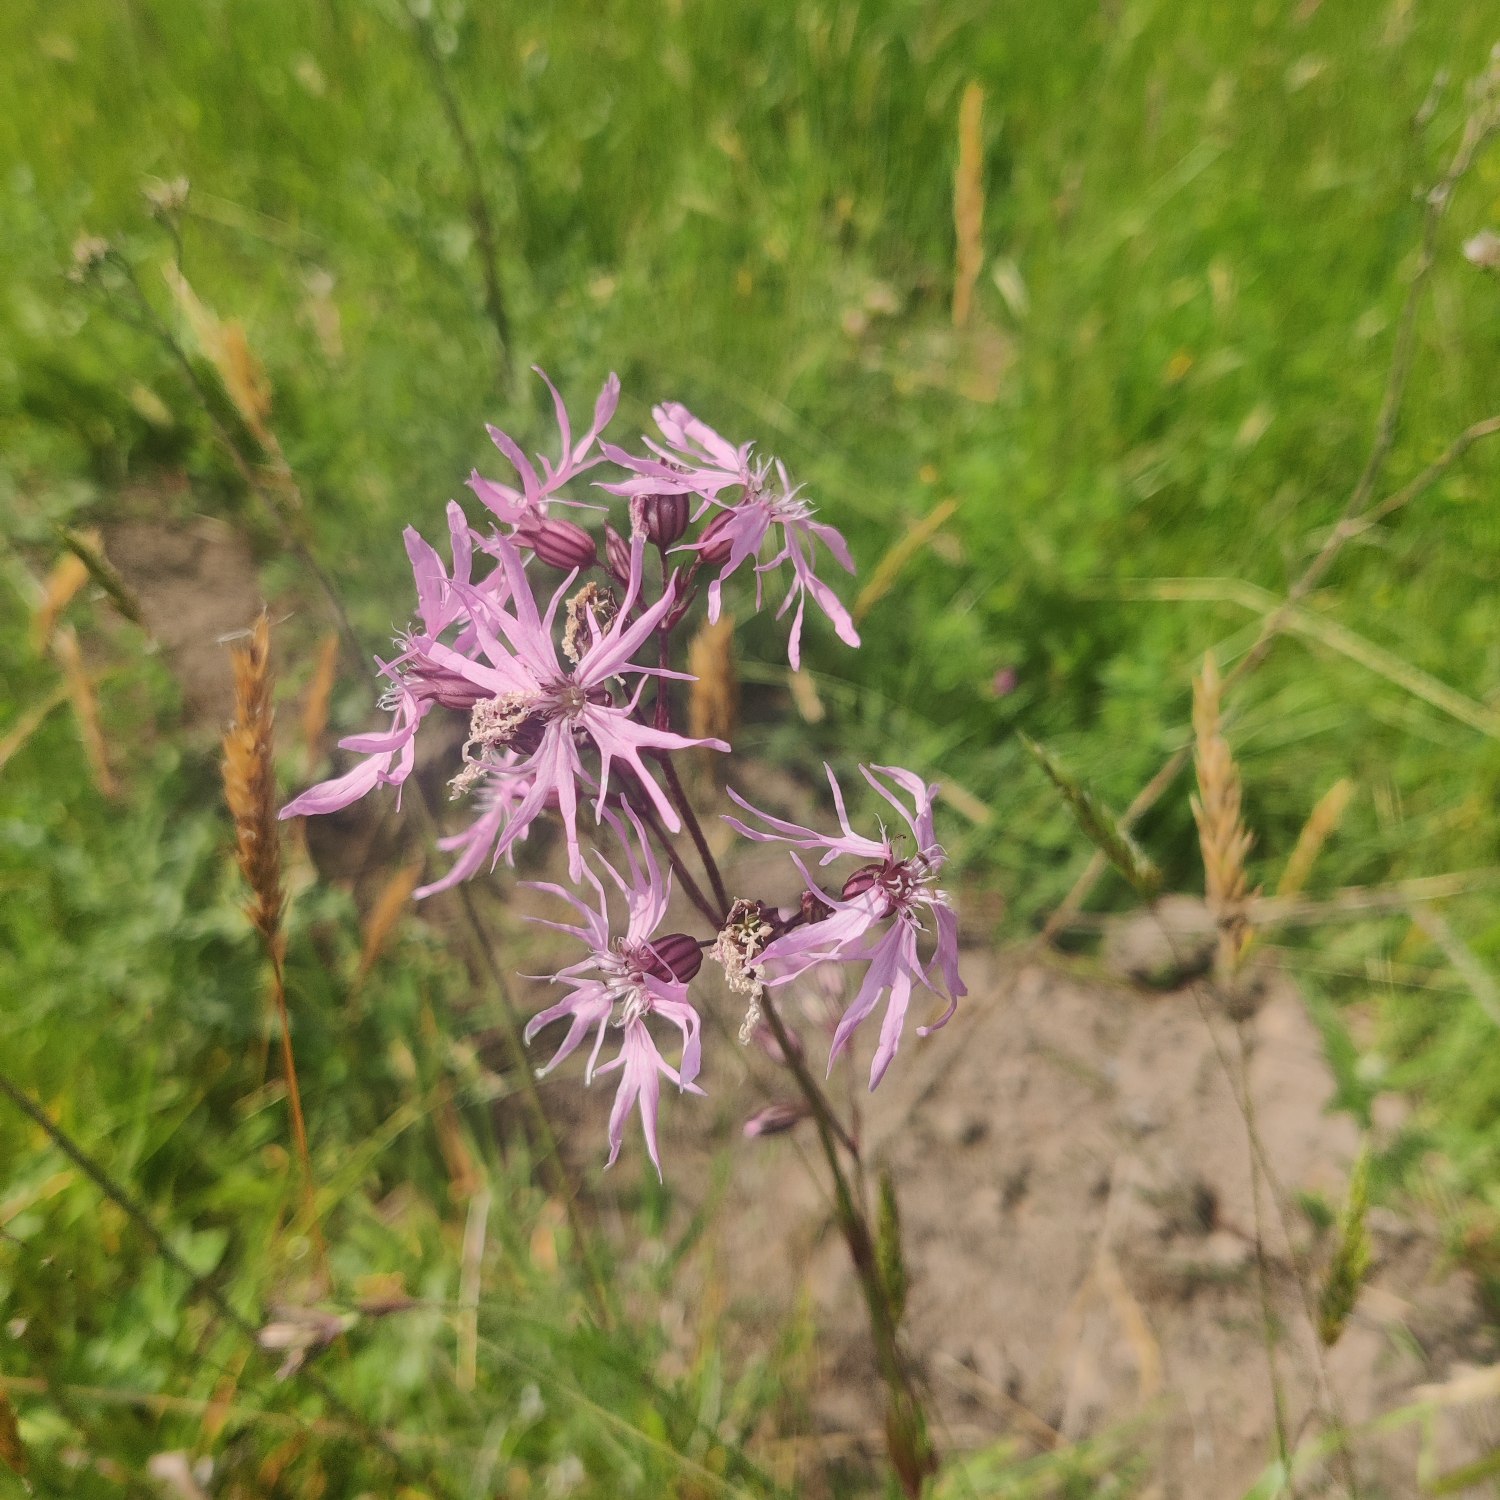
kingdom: Plantae
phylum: Tracheophyta
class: Magnoliopsida
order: Caryophyllales
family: Caryophyllaceae
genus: Silene
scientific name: Silene flos-cuculi
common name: Trævlekrone
